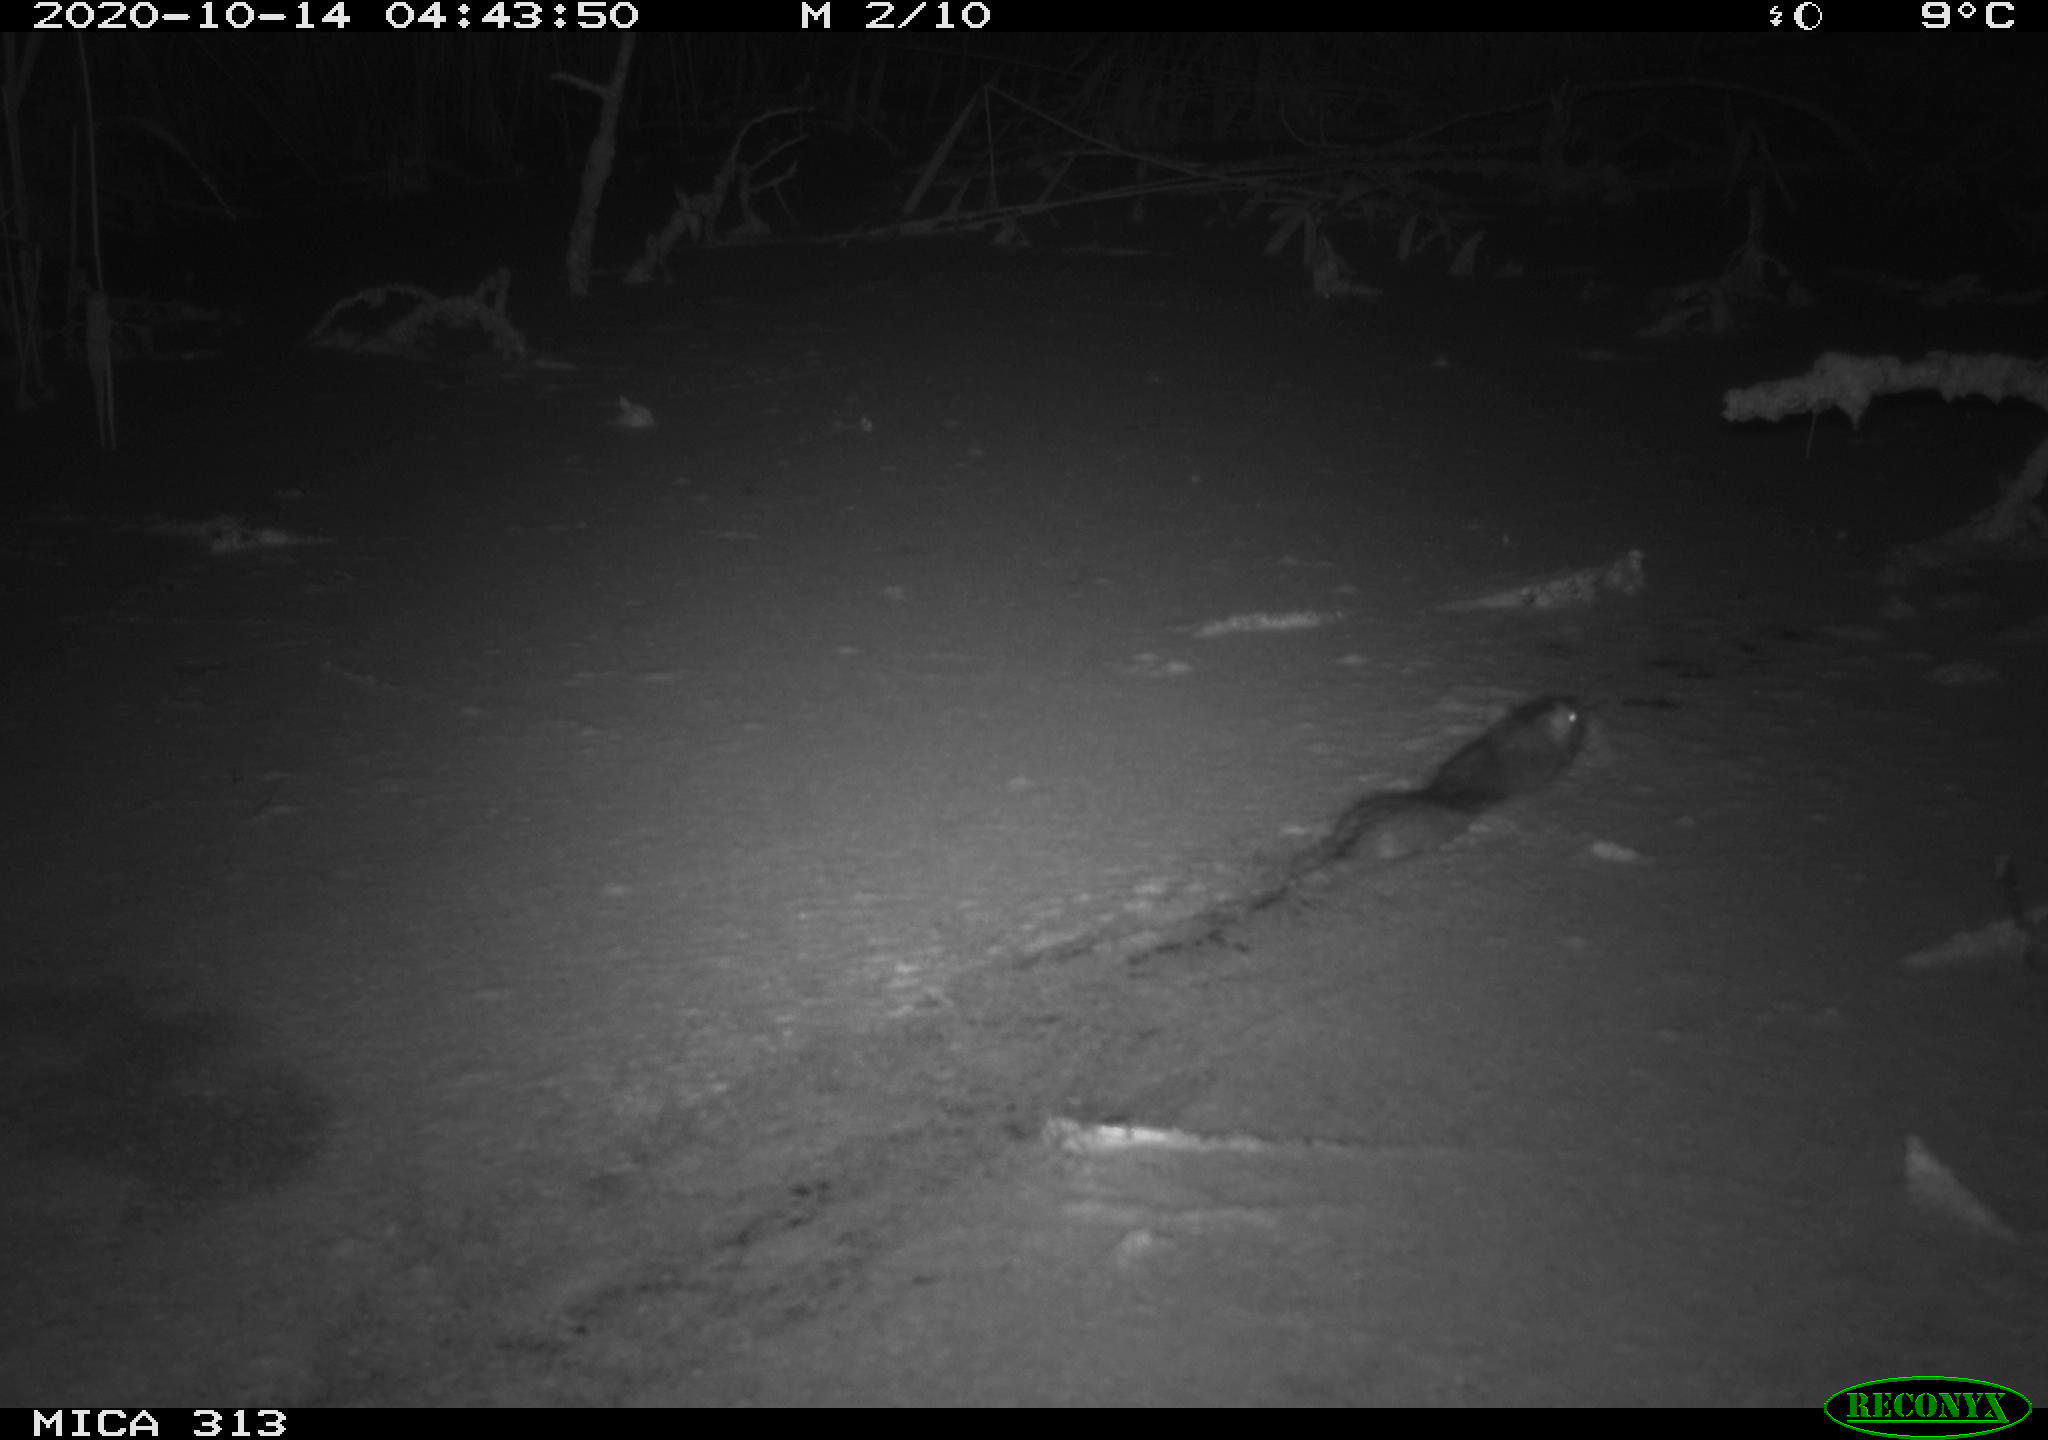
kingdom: Animalia
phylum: Chordata
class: Mammalia
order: Rodentia
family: Muridae
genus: Rattus
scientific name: Rattus norvegicus
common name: Brown rat
